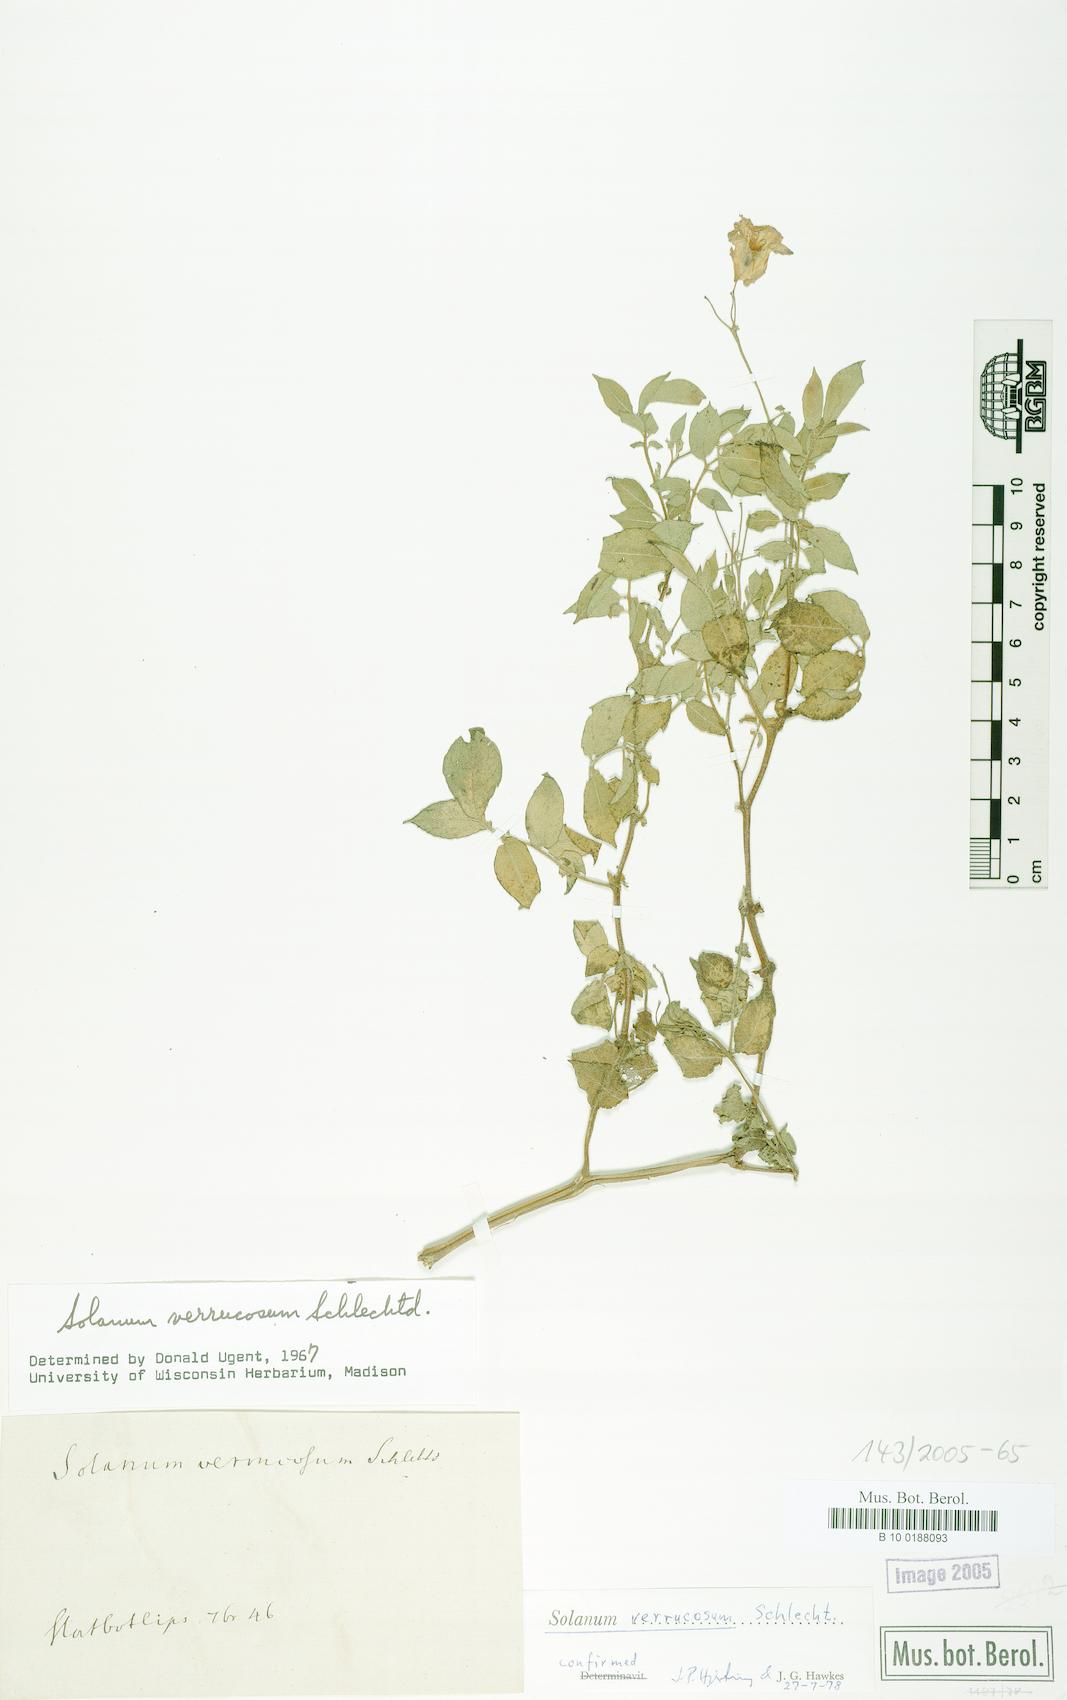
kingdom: Plantae
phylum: Tracheophyta
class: Magnoliopsida
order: Solanales
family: Solanaceae
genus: Solanum
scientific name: Solanum verrucosum
